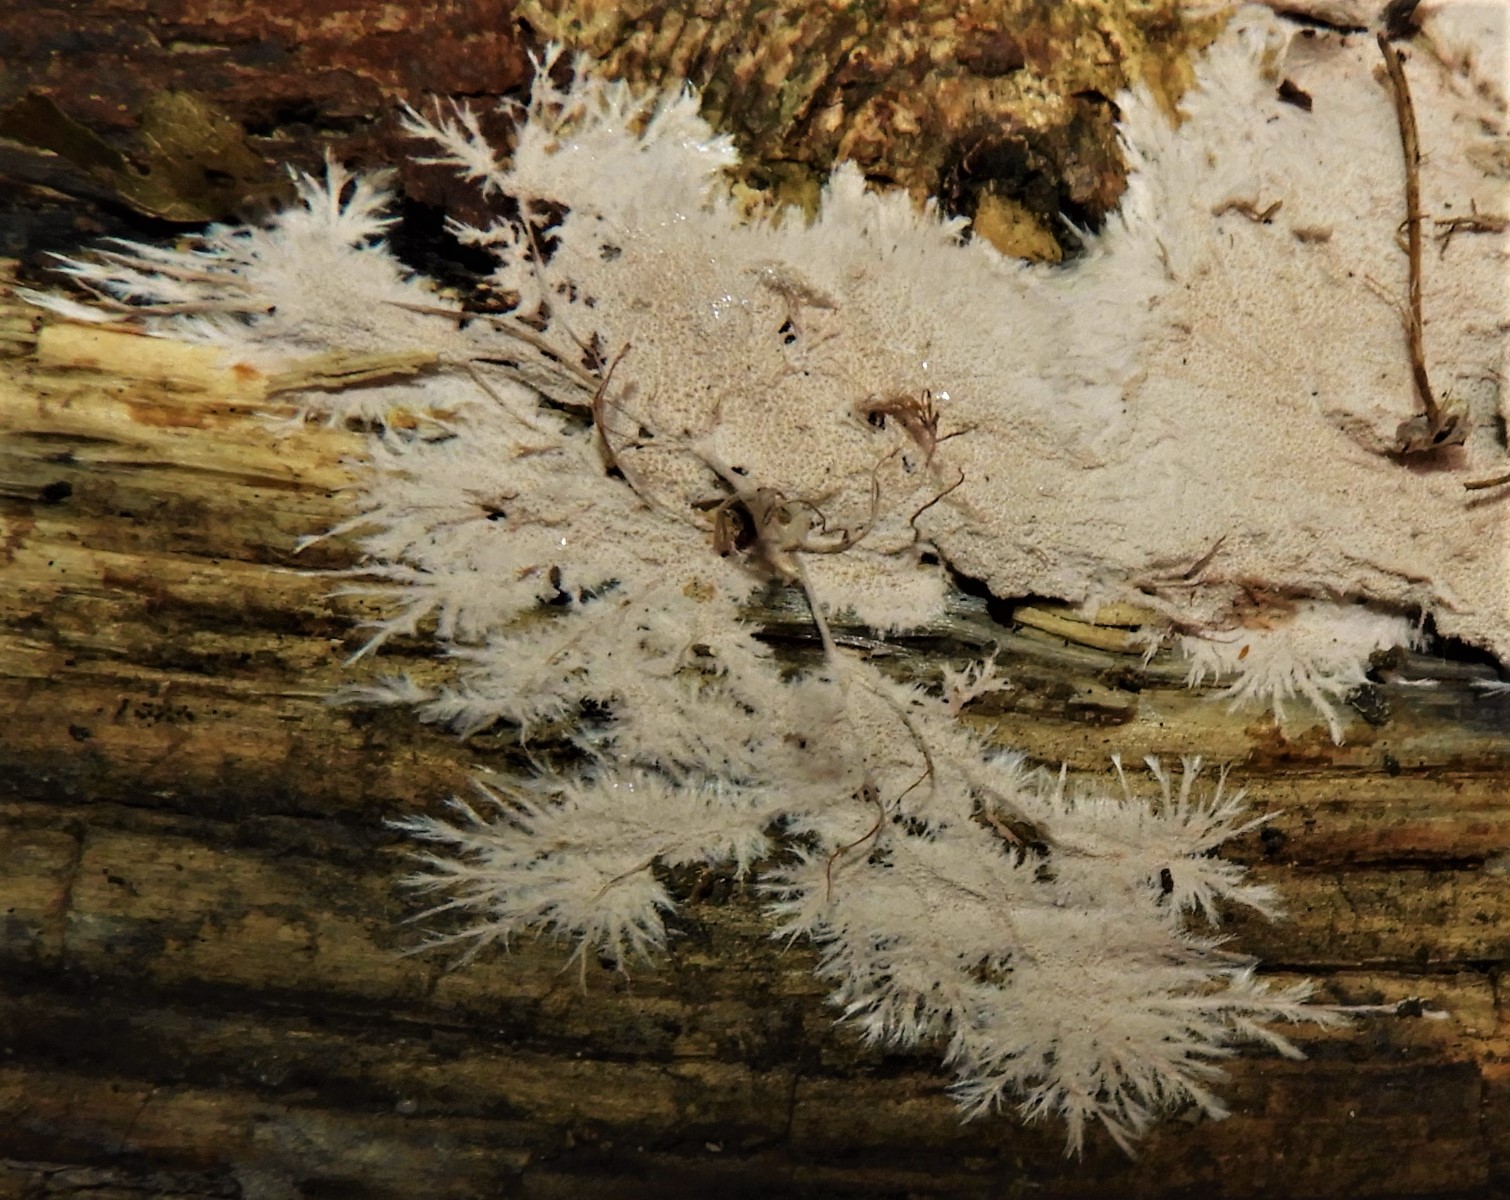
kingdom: Fungi
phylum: Basidiomycota
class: Agaricomycetes
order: Polyporales
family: Steccherinaceae
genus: Steccherinum
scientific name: Steccherinum fimbriatum
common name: trådet skønpig
